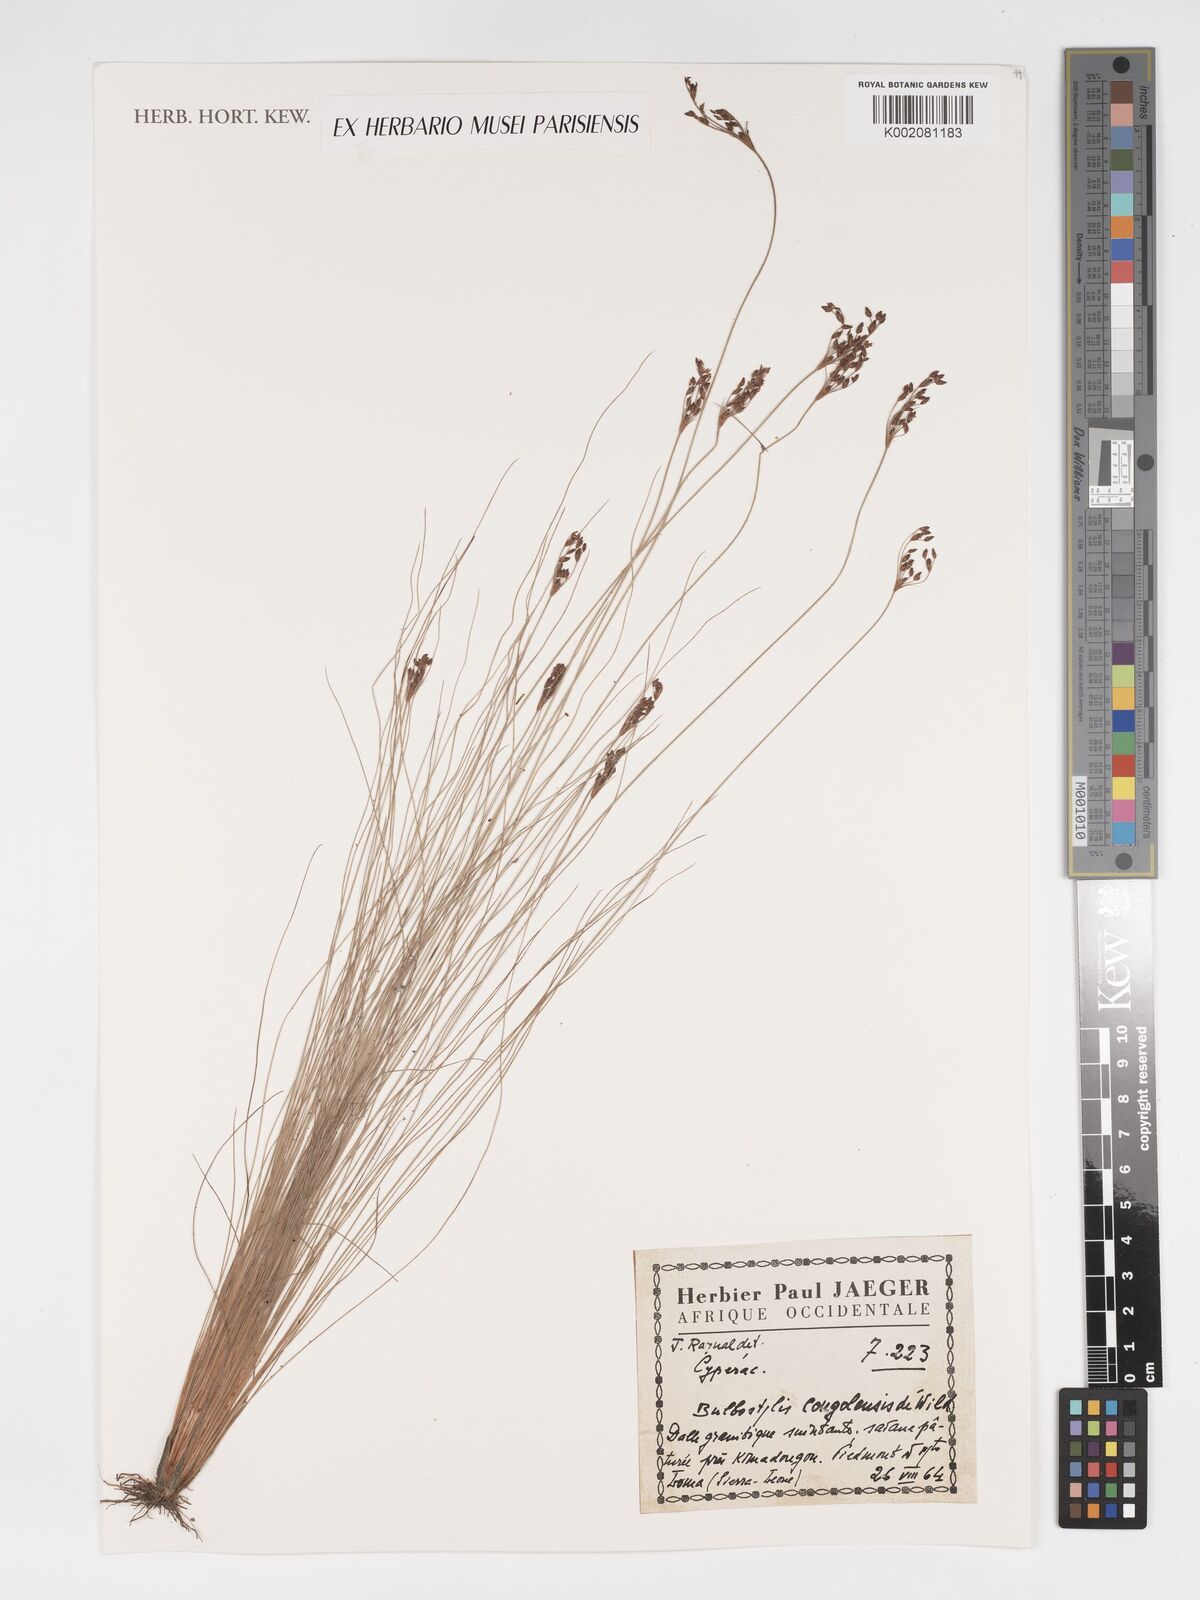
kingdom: Plantae
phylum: Tracheophyta
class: Liliopsida
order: Poales
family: Cyperaceae
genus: Bulbostylis
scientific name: Bulbostylis congolensis
